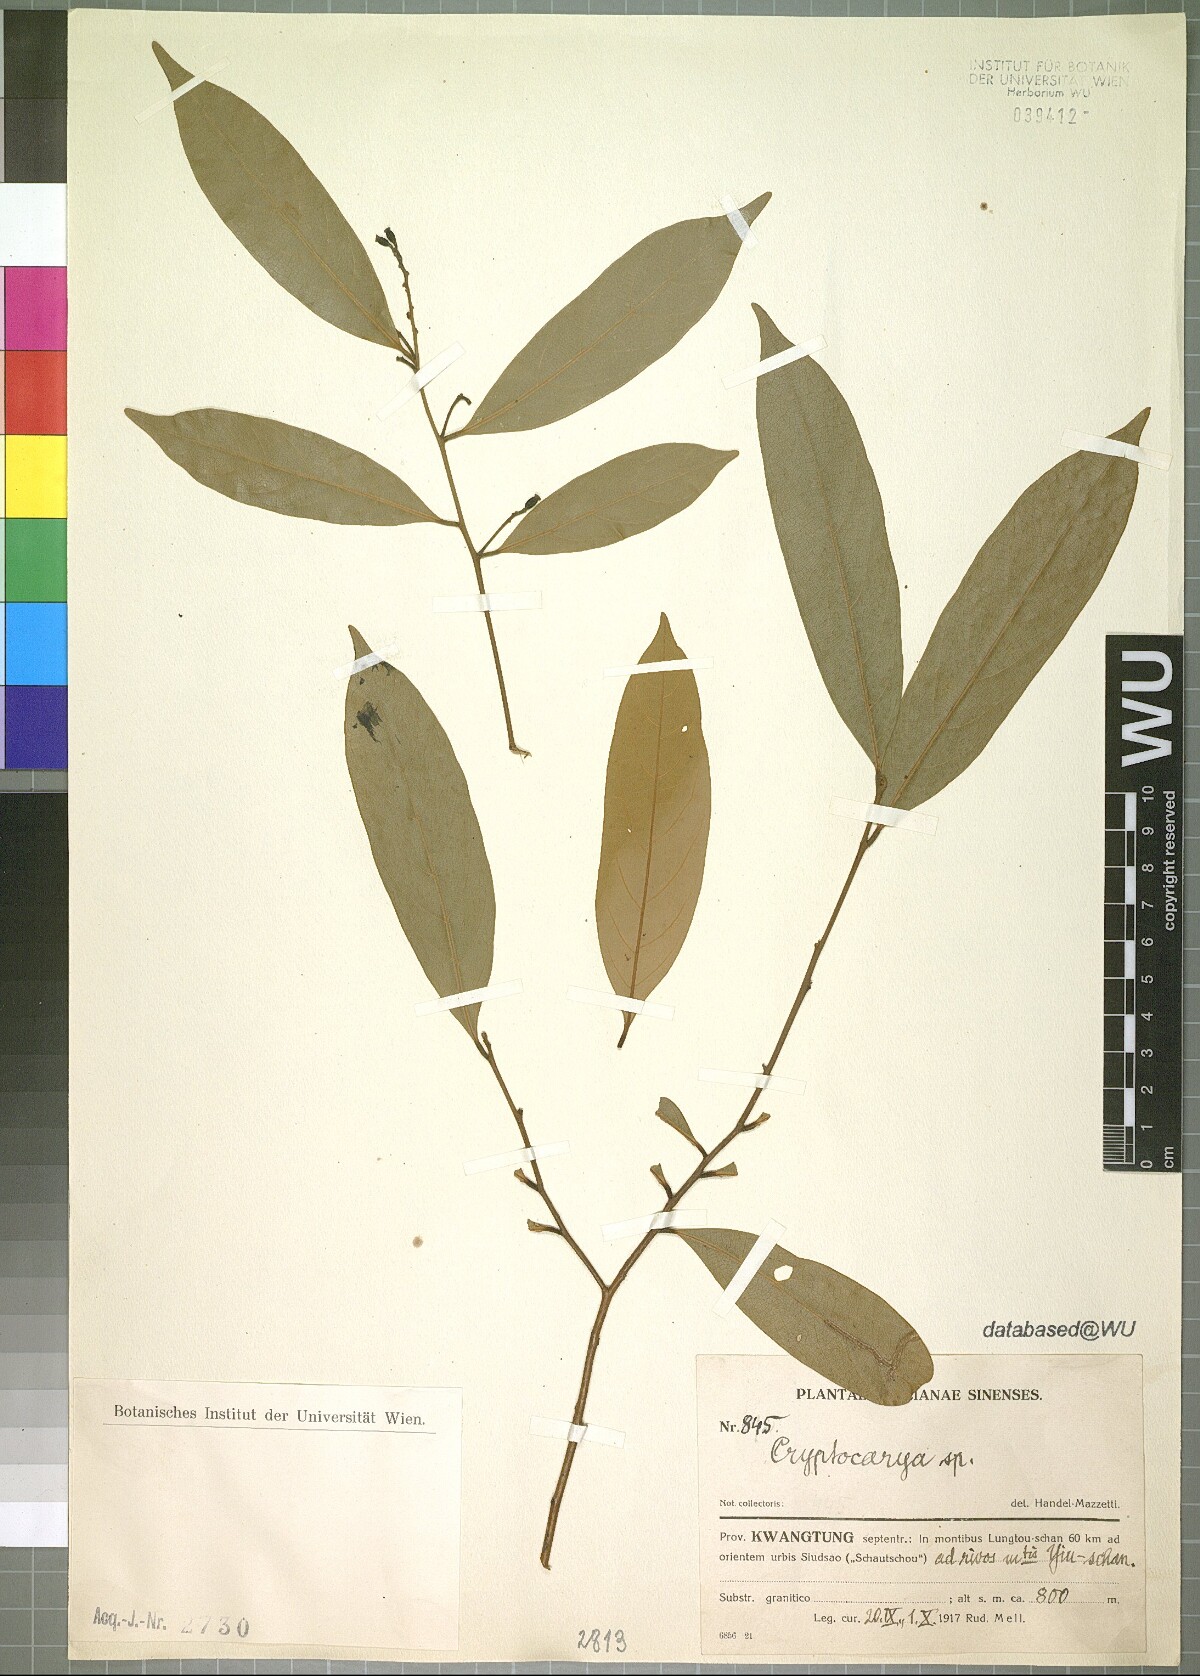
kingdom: Plantae
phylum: Tracheophyta
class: Magnoliopsida
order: Laurales
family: Lauraceae
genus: Cryptocarya
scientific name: Cryptocarya
